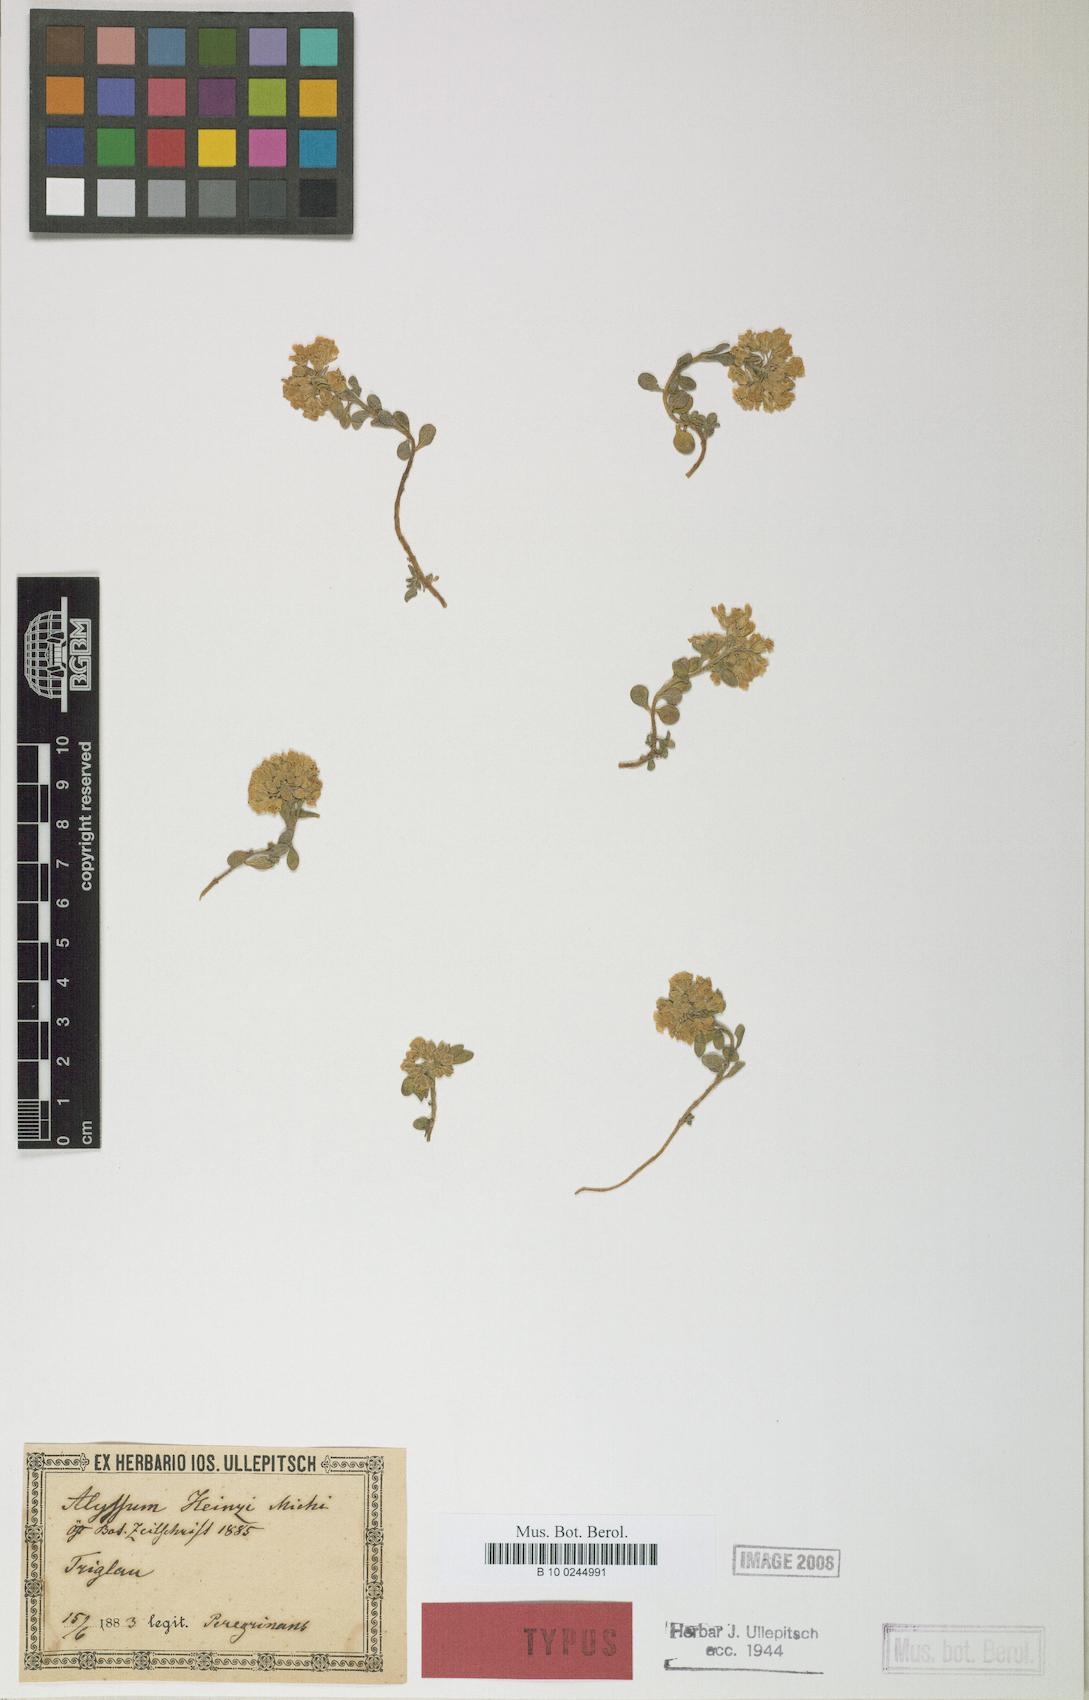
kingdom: Plantae
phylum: Tracheophyta
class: Magnoliopsida
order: Brassicales
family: Brassicaceae
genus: Alyssum
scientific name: Alyssum wulfenianum
